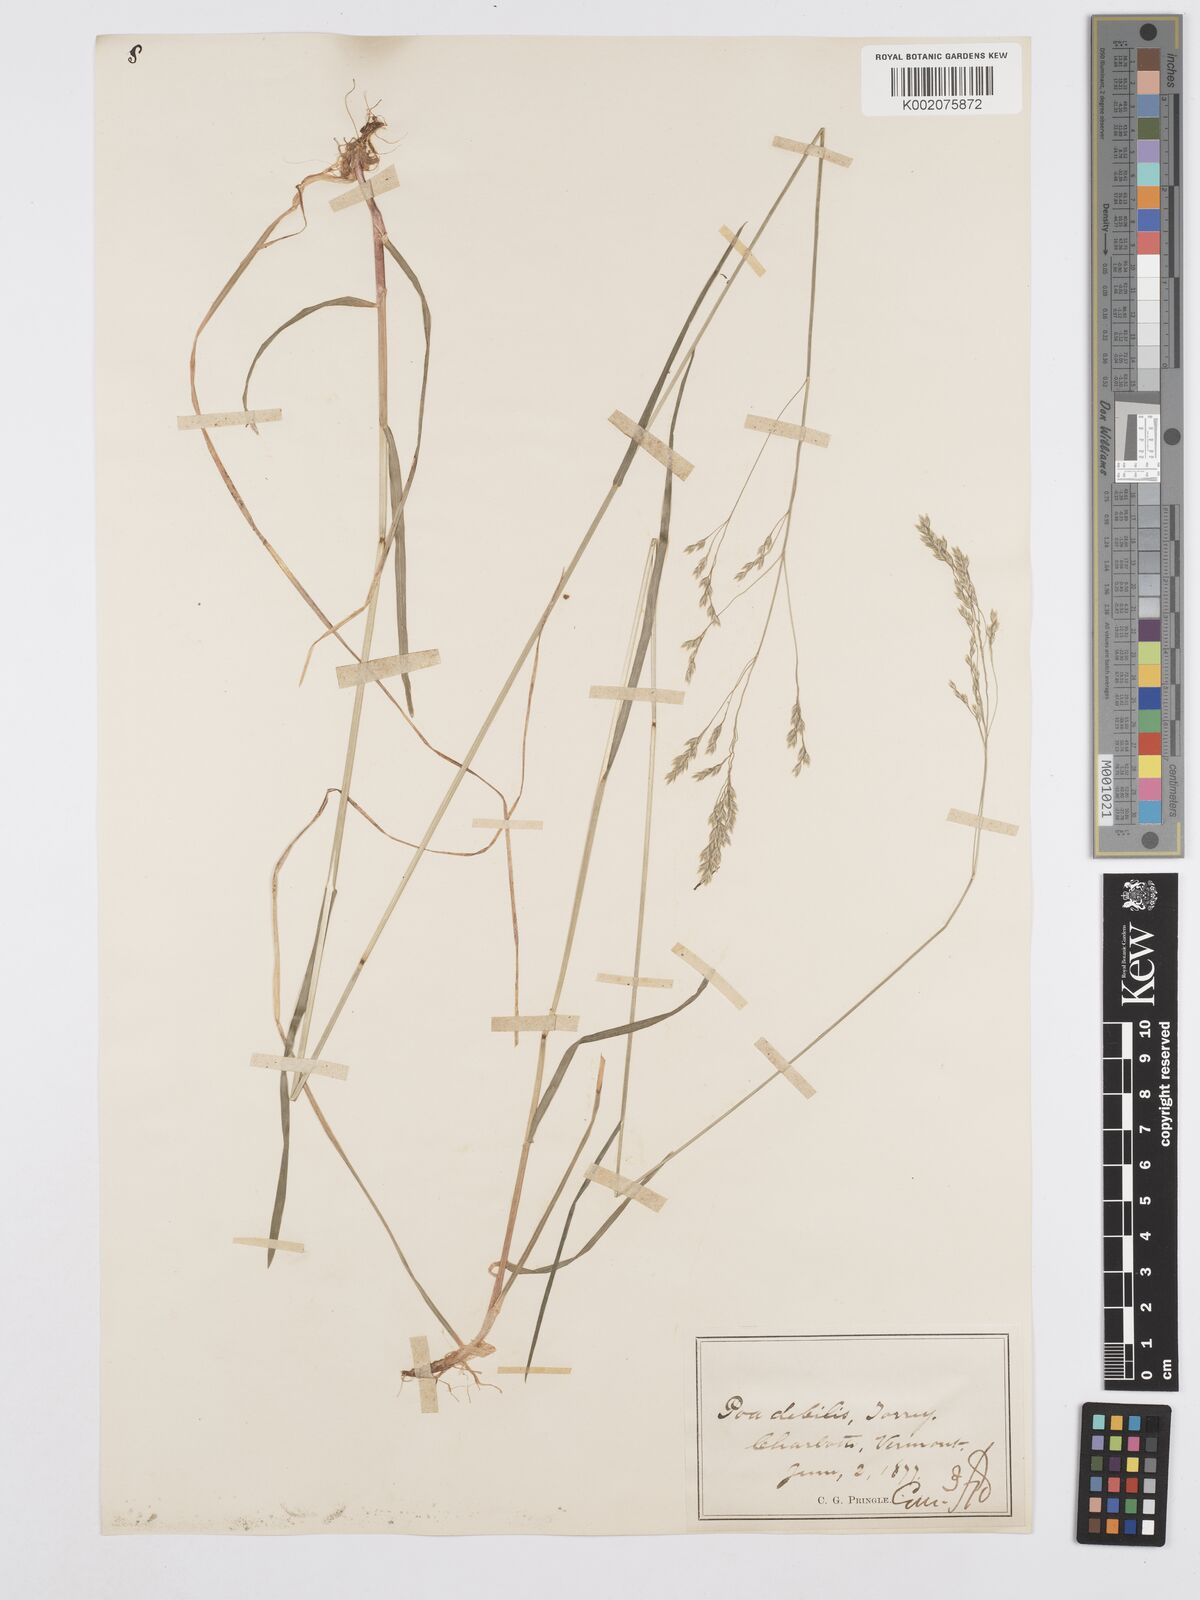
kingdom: Plantae
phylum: Tracheophyta
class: Liliopsida
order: Poales
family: Poaceae
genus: Poa
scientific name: Poa saltuensis
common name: Bushy pasture speargrass
